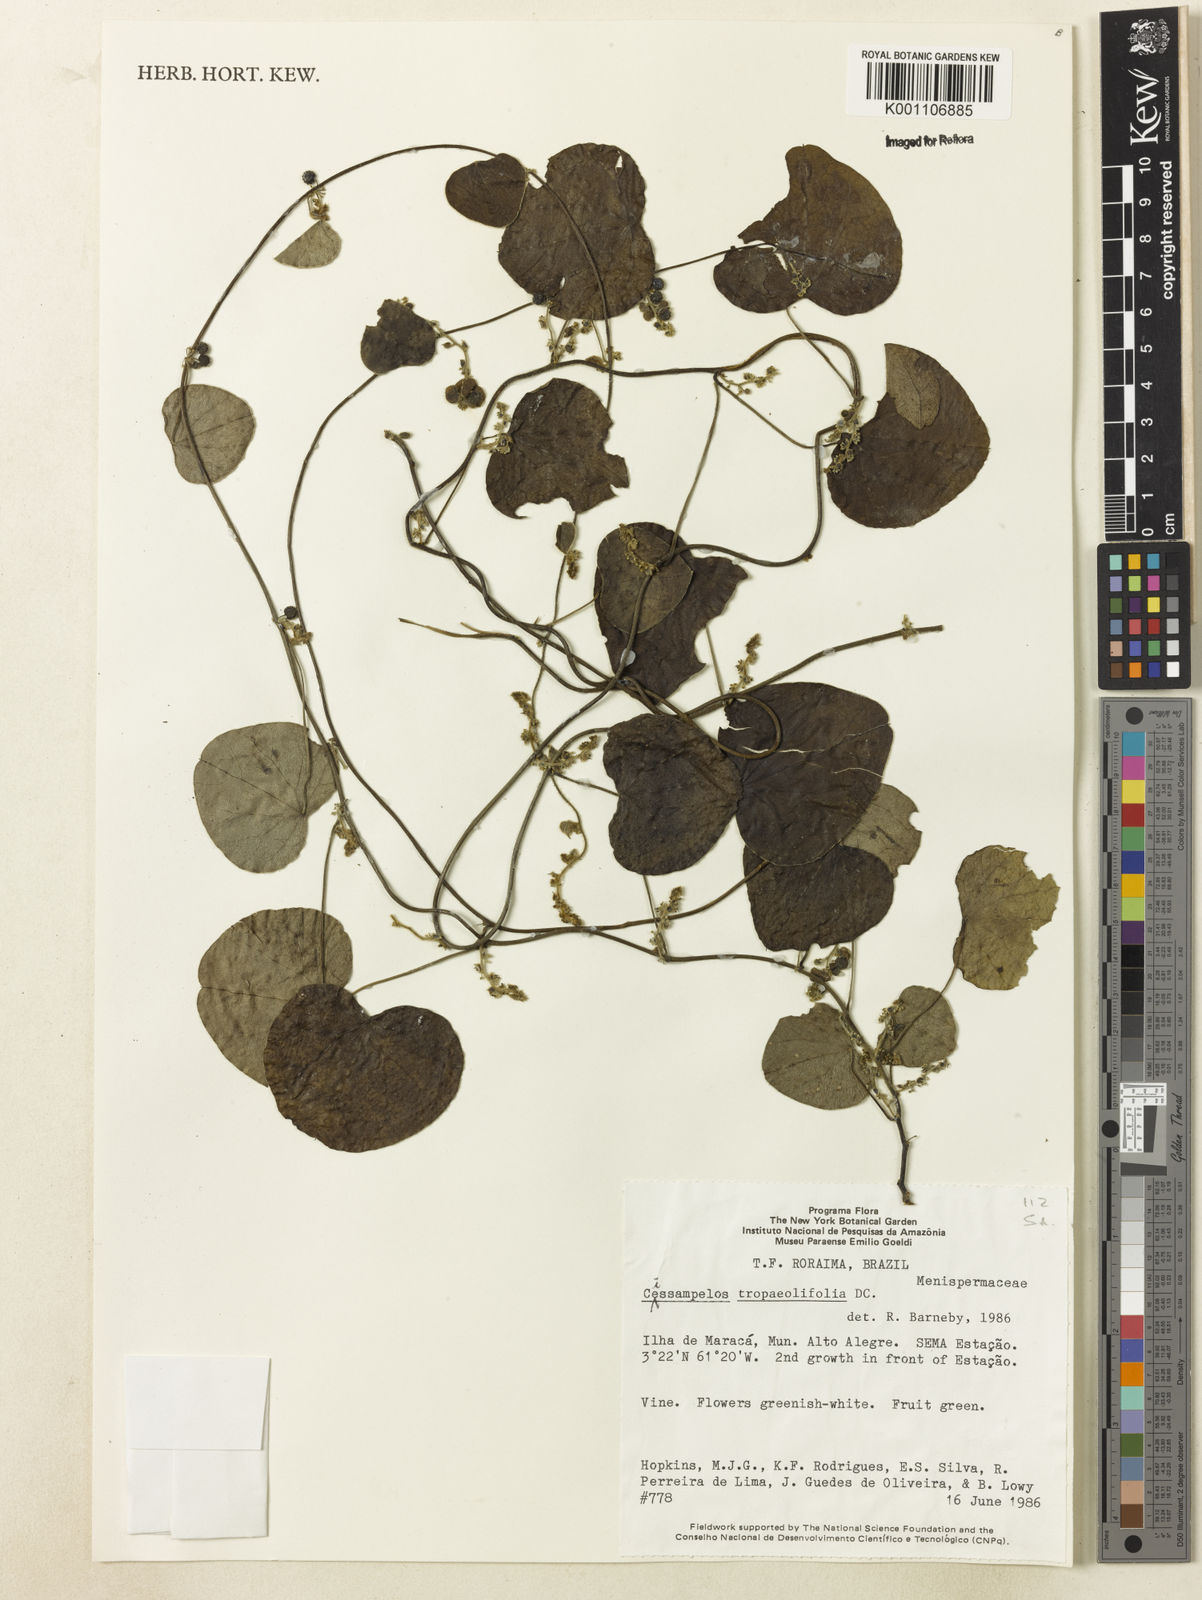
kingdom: Plantae
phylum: Tracheophyta
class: Magnoliopsida
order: Ranunculales
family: Menispermaceae
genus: Cissampelos
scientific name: Cissampelos tropaeolifolia
